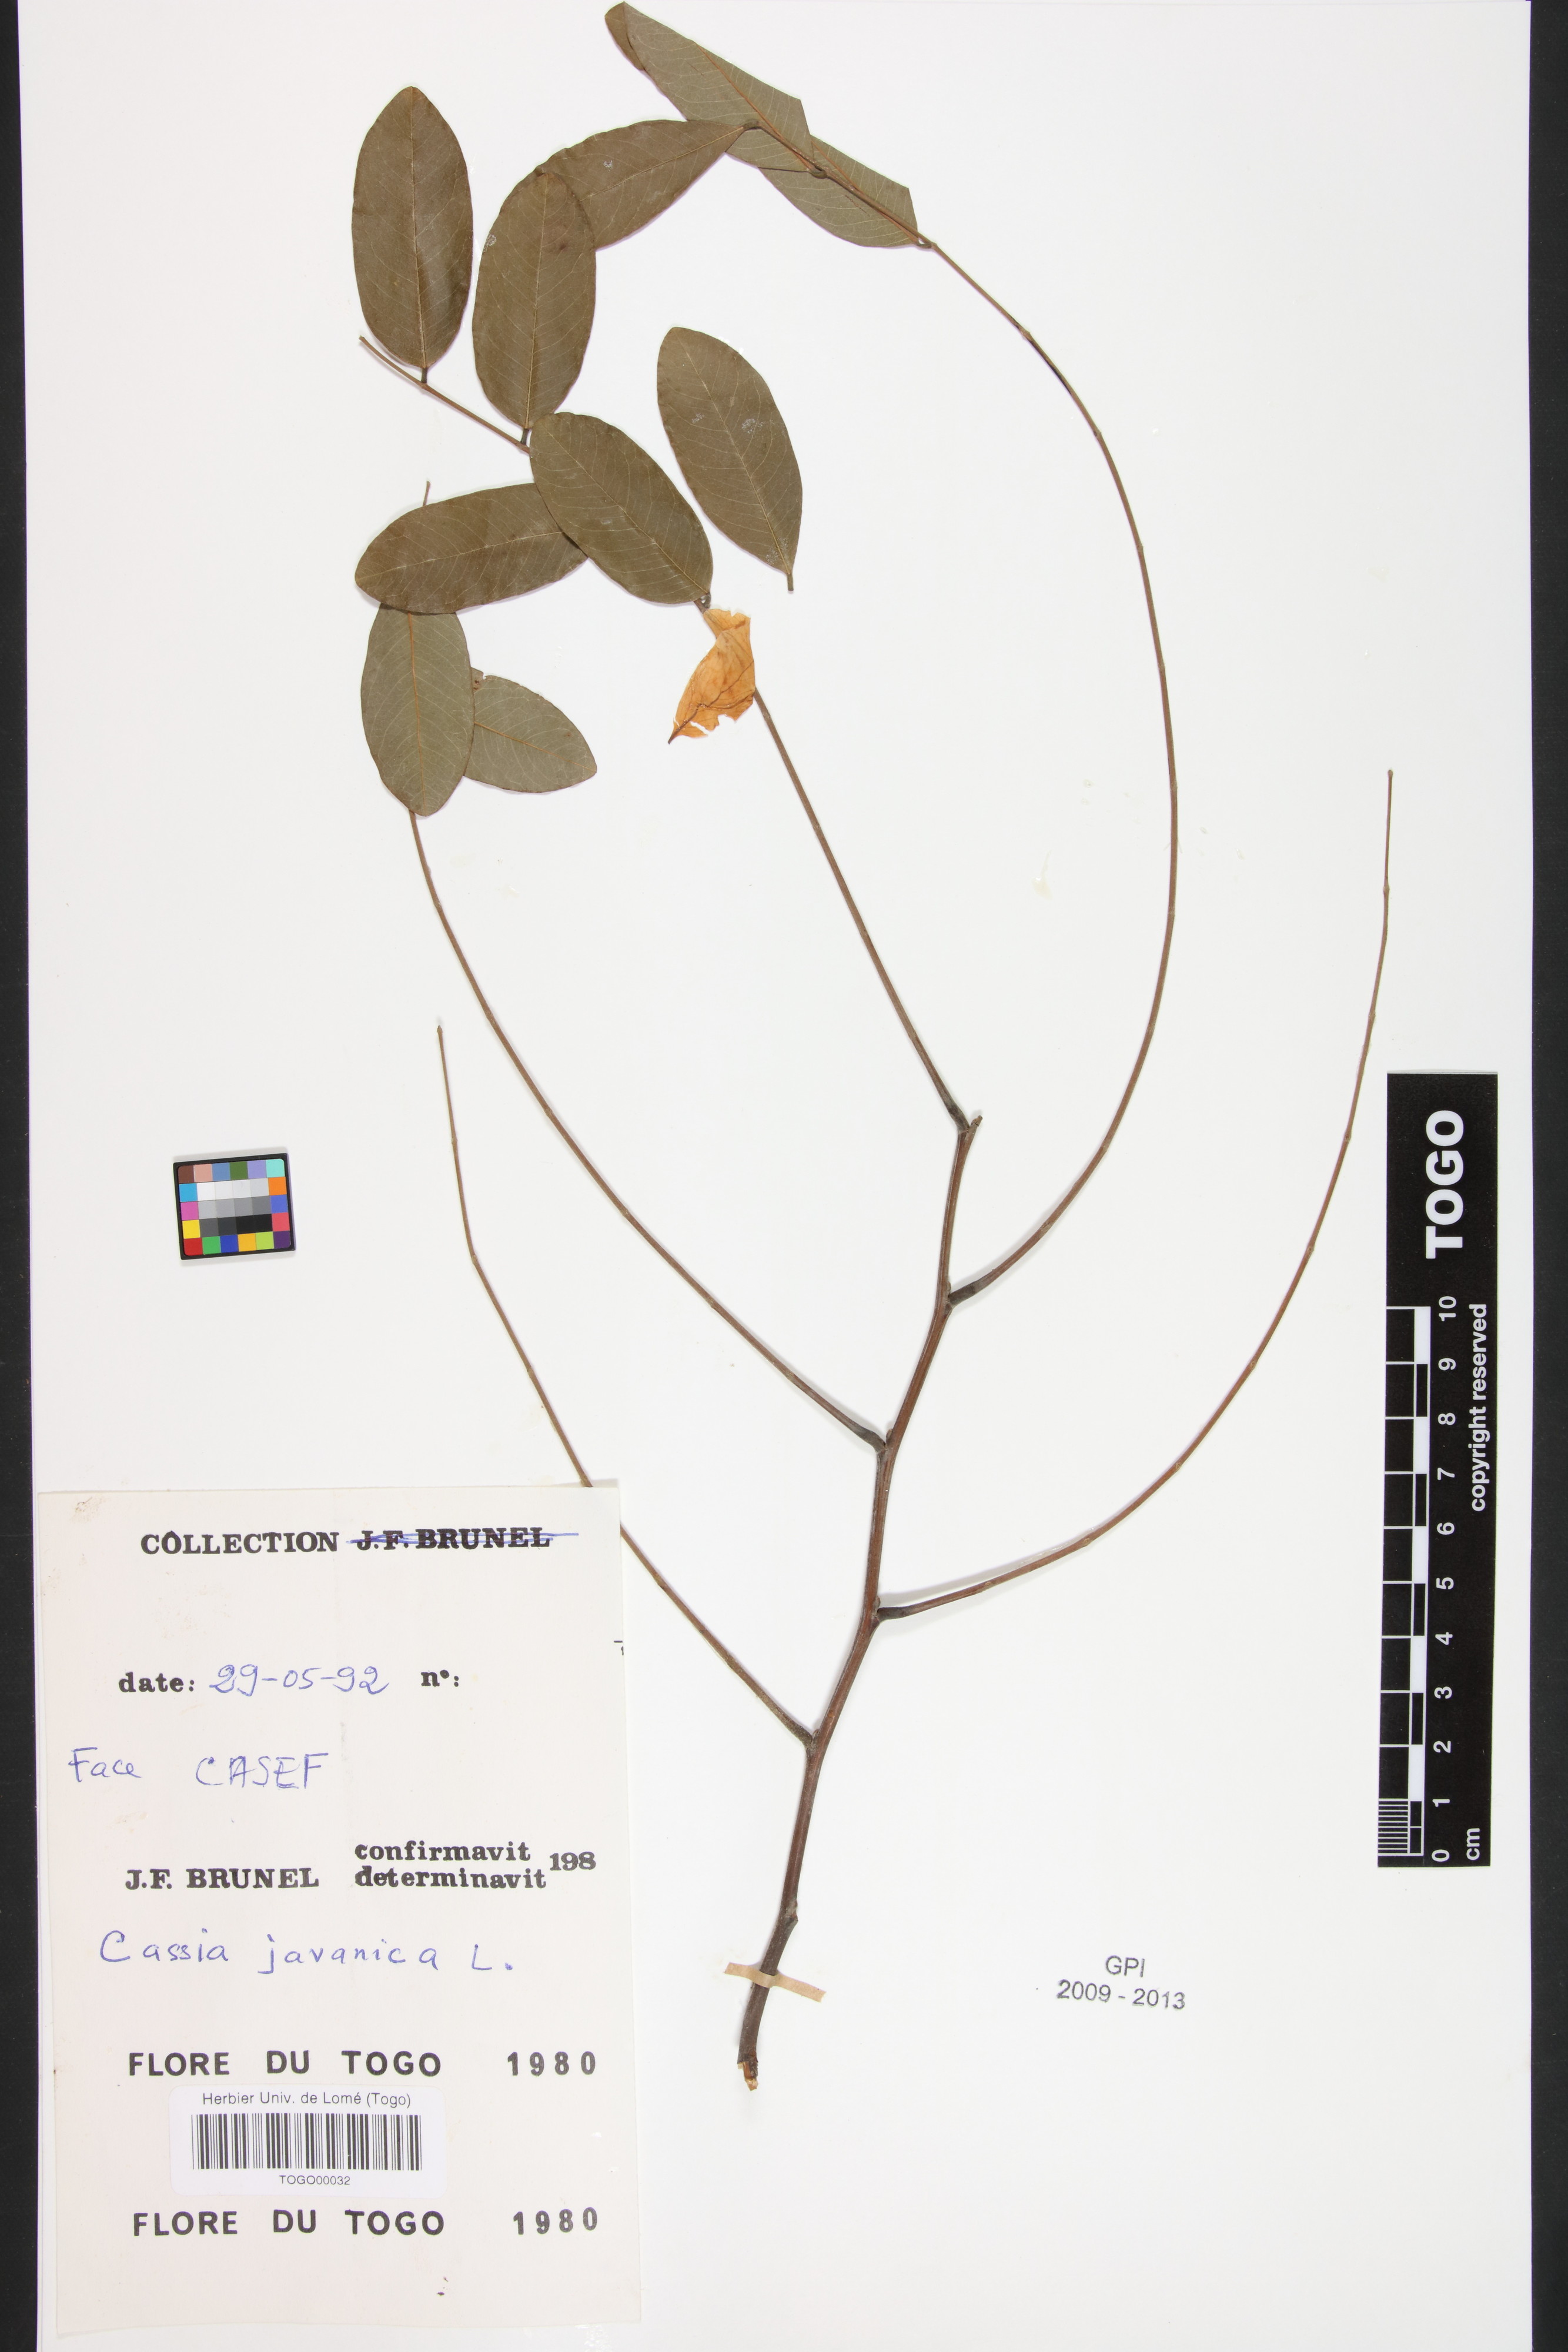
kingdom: Plantae
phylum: Tracheophyta
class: Magnoliopsida
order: Fabales
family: Fabaceae
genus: Cassia
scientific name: Cassia fistula
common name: Golden shower
